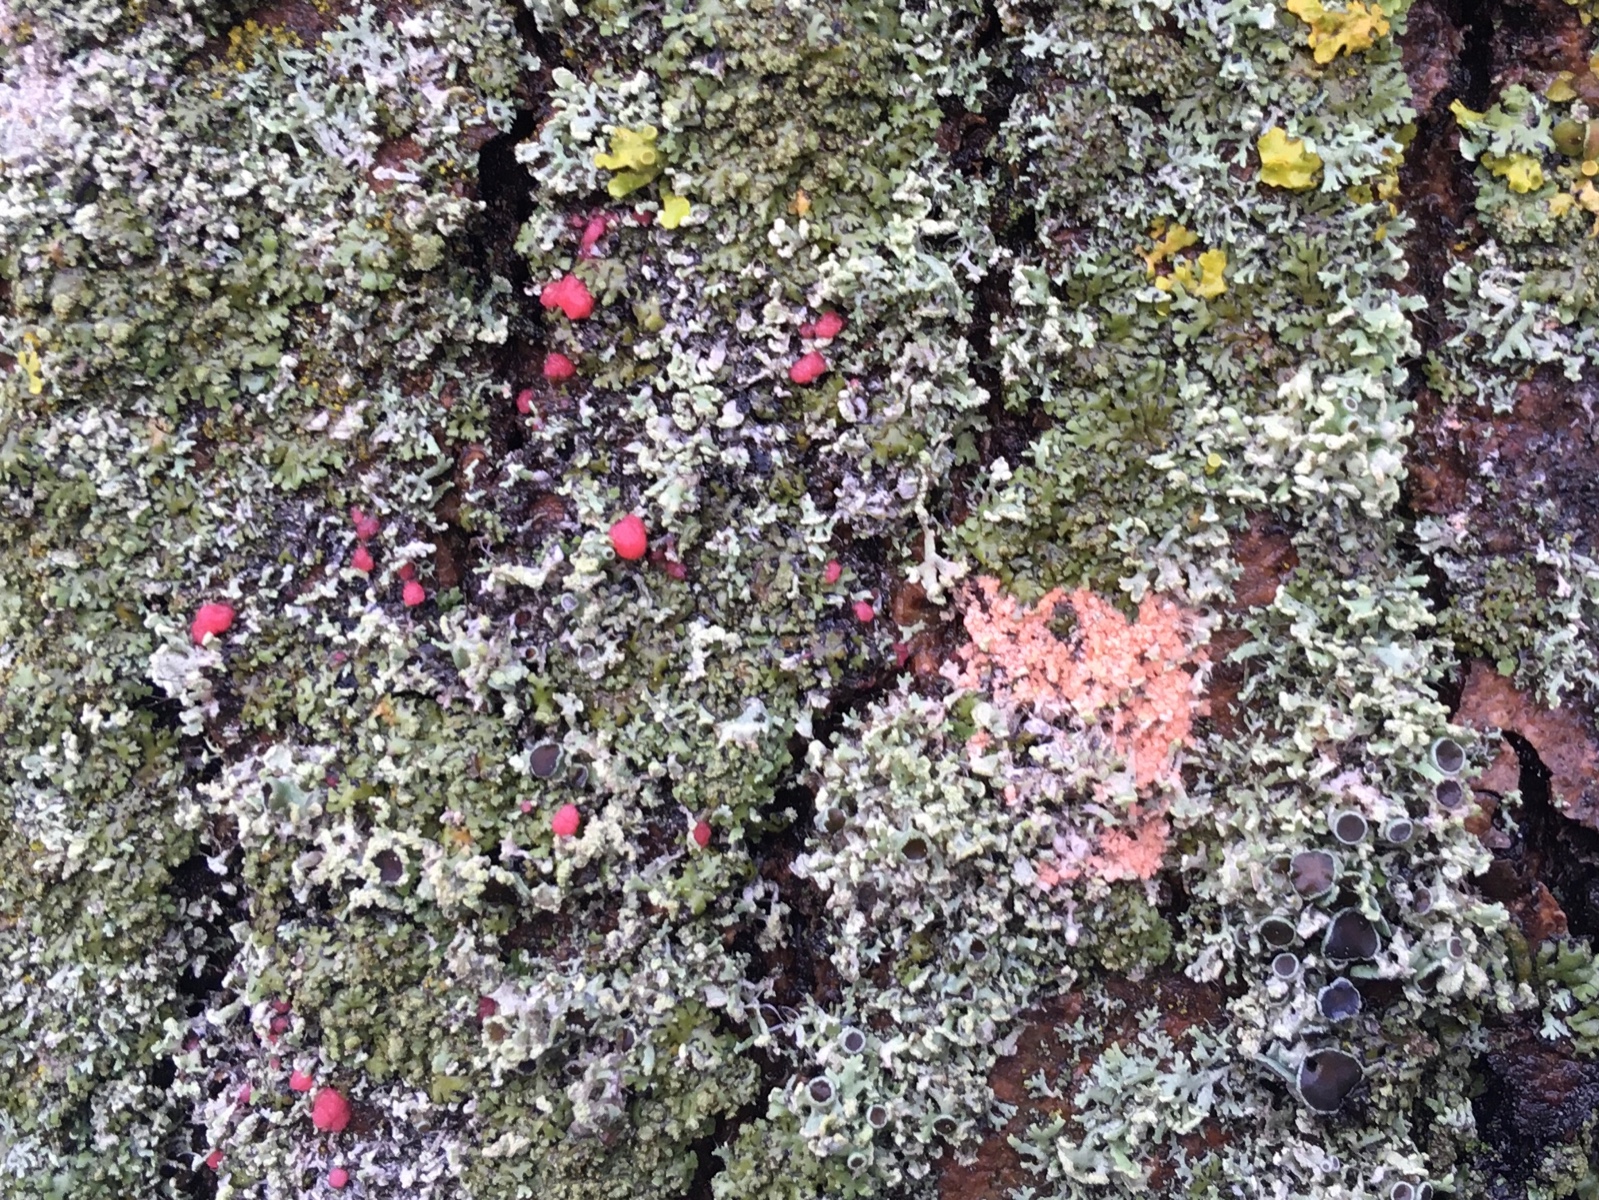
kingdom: Fungi
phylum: Ascomycota
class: Sordariomycetes
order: Hypocreales
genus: Illosporiopsis
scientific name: Illosporiopsis christiansenii
